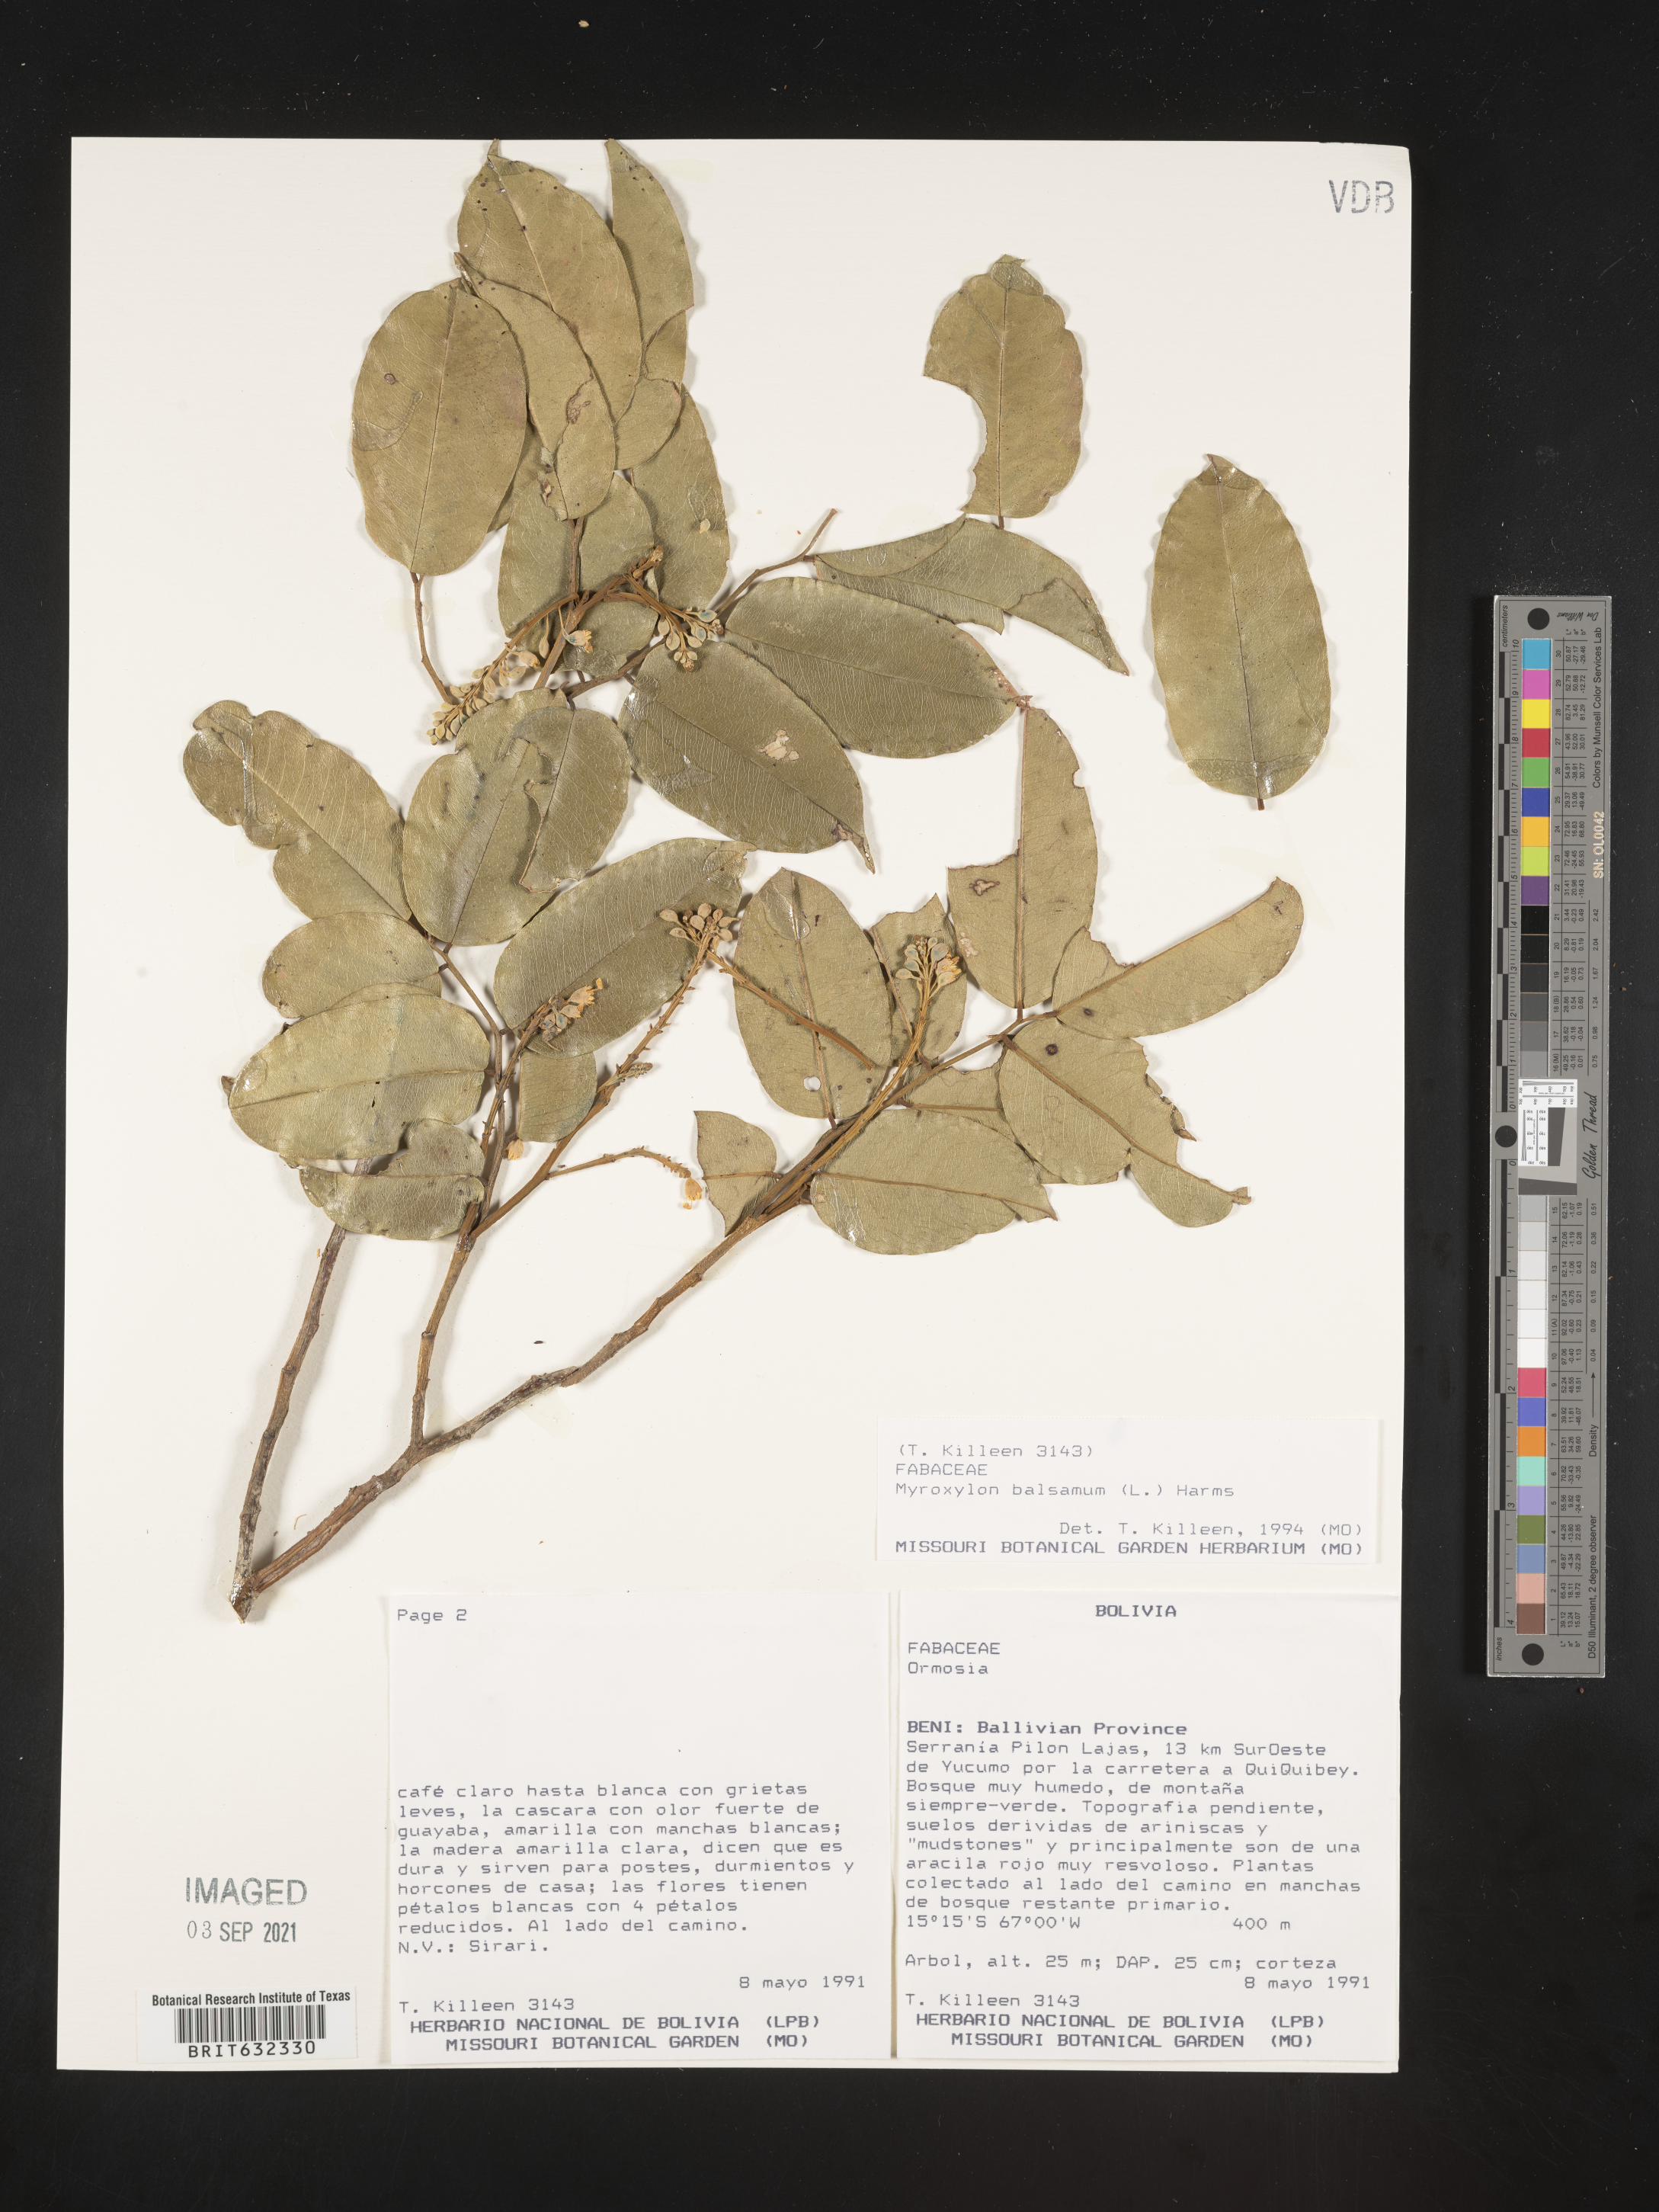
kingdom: Plantae
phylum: Tracheophyta
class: Magnoliopsida
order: Fabales
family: Fabaceae
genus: Myroxylon
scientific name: Myroxylon
